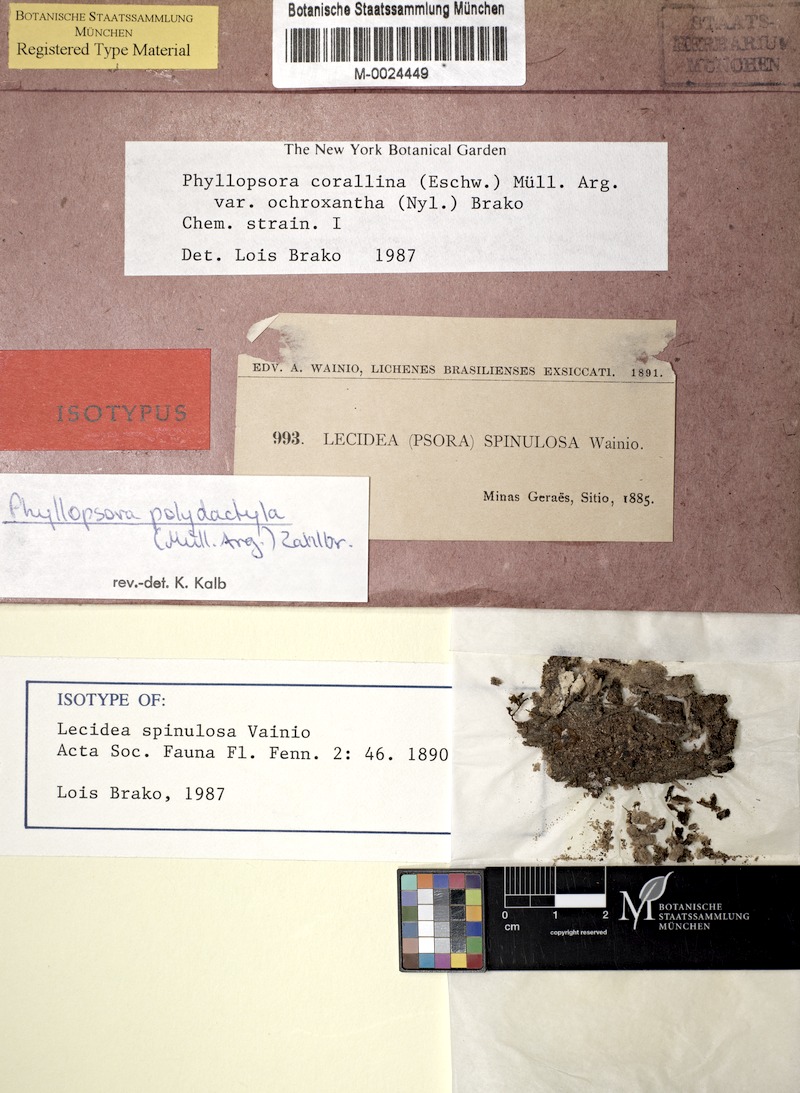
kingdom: Fungi
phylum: Ascomycota
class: Lecanoromycetes
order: Lecanorales
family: Ramalinaceae
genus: Wolseleyidea
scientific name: Wolseleyidea ochroxantha
